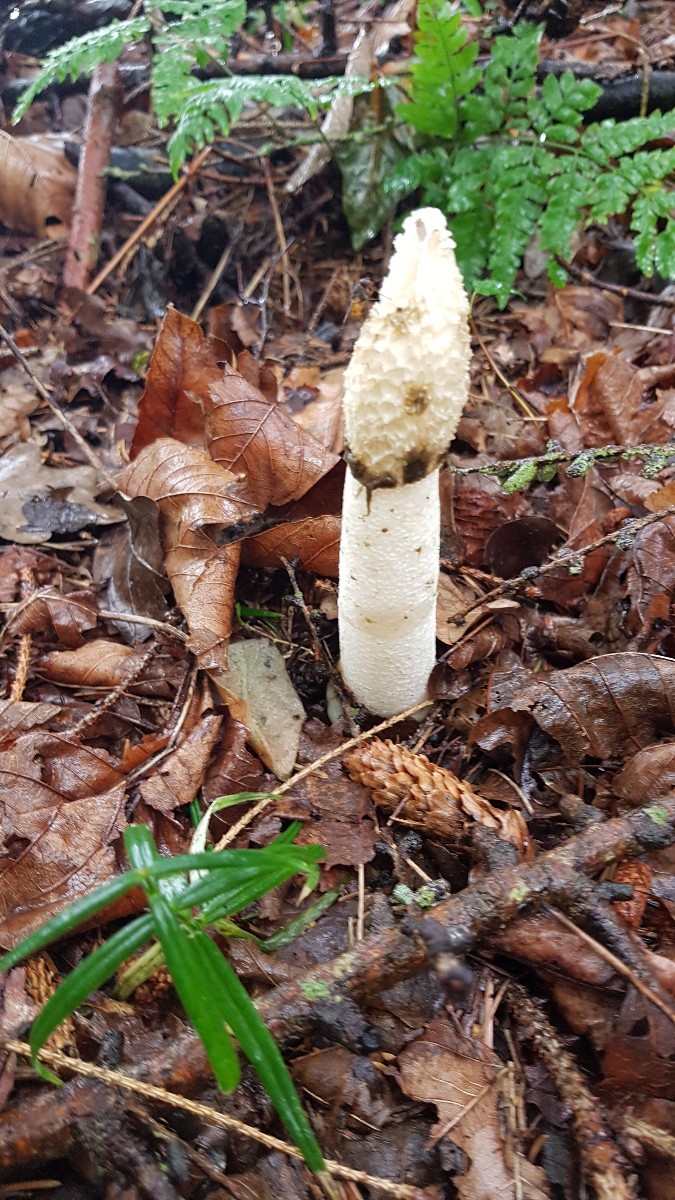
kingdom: Fungi
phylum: Basidiomycota
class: Agaricomycetes
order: Phallales
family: Phallaceae
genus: Phallus
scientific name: Phallus impudicus
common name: almindelig stinksvamp
